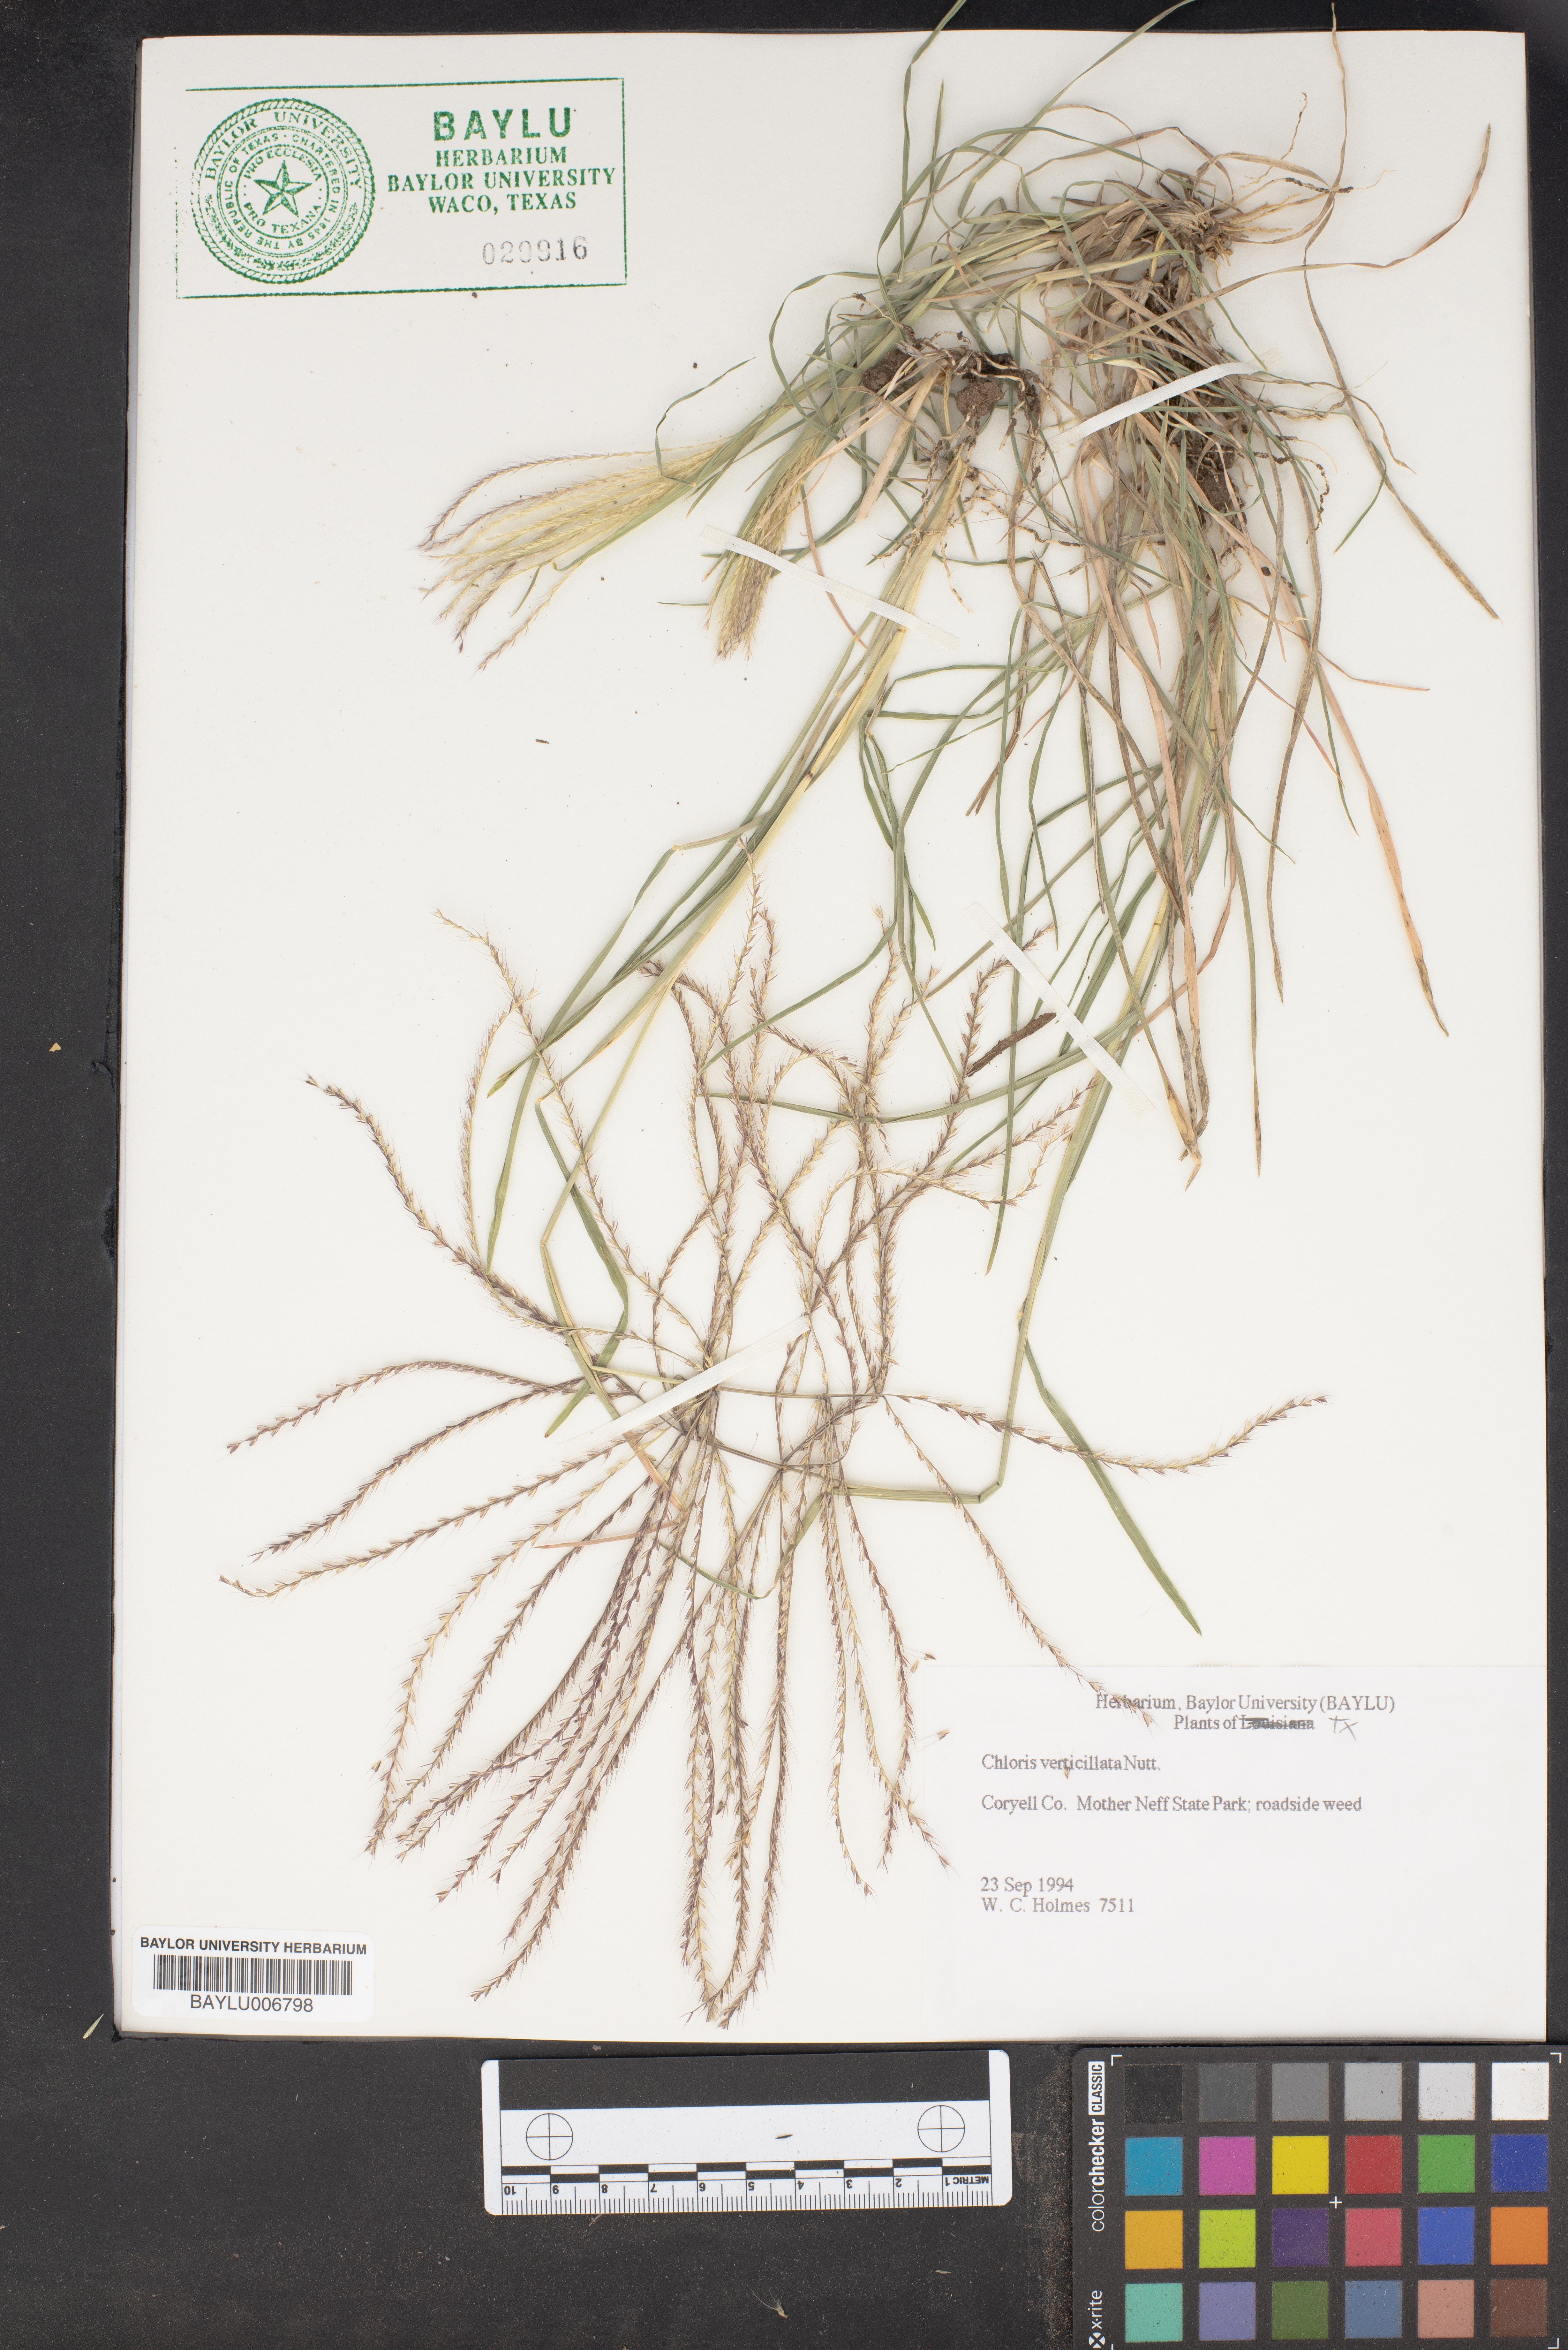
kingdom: Plantae
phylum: Tracheophyta
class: Liliopsida
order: Poales
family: Poaceae
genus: Chloris
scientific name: Chloris verticillata
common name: Tumble windmill grass
